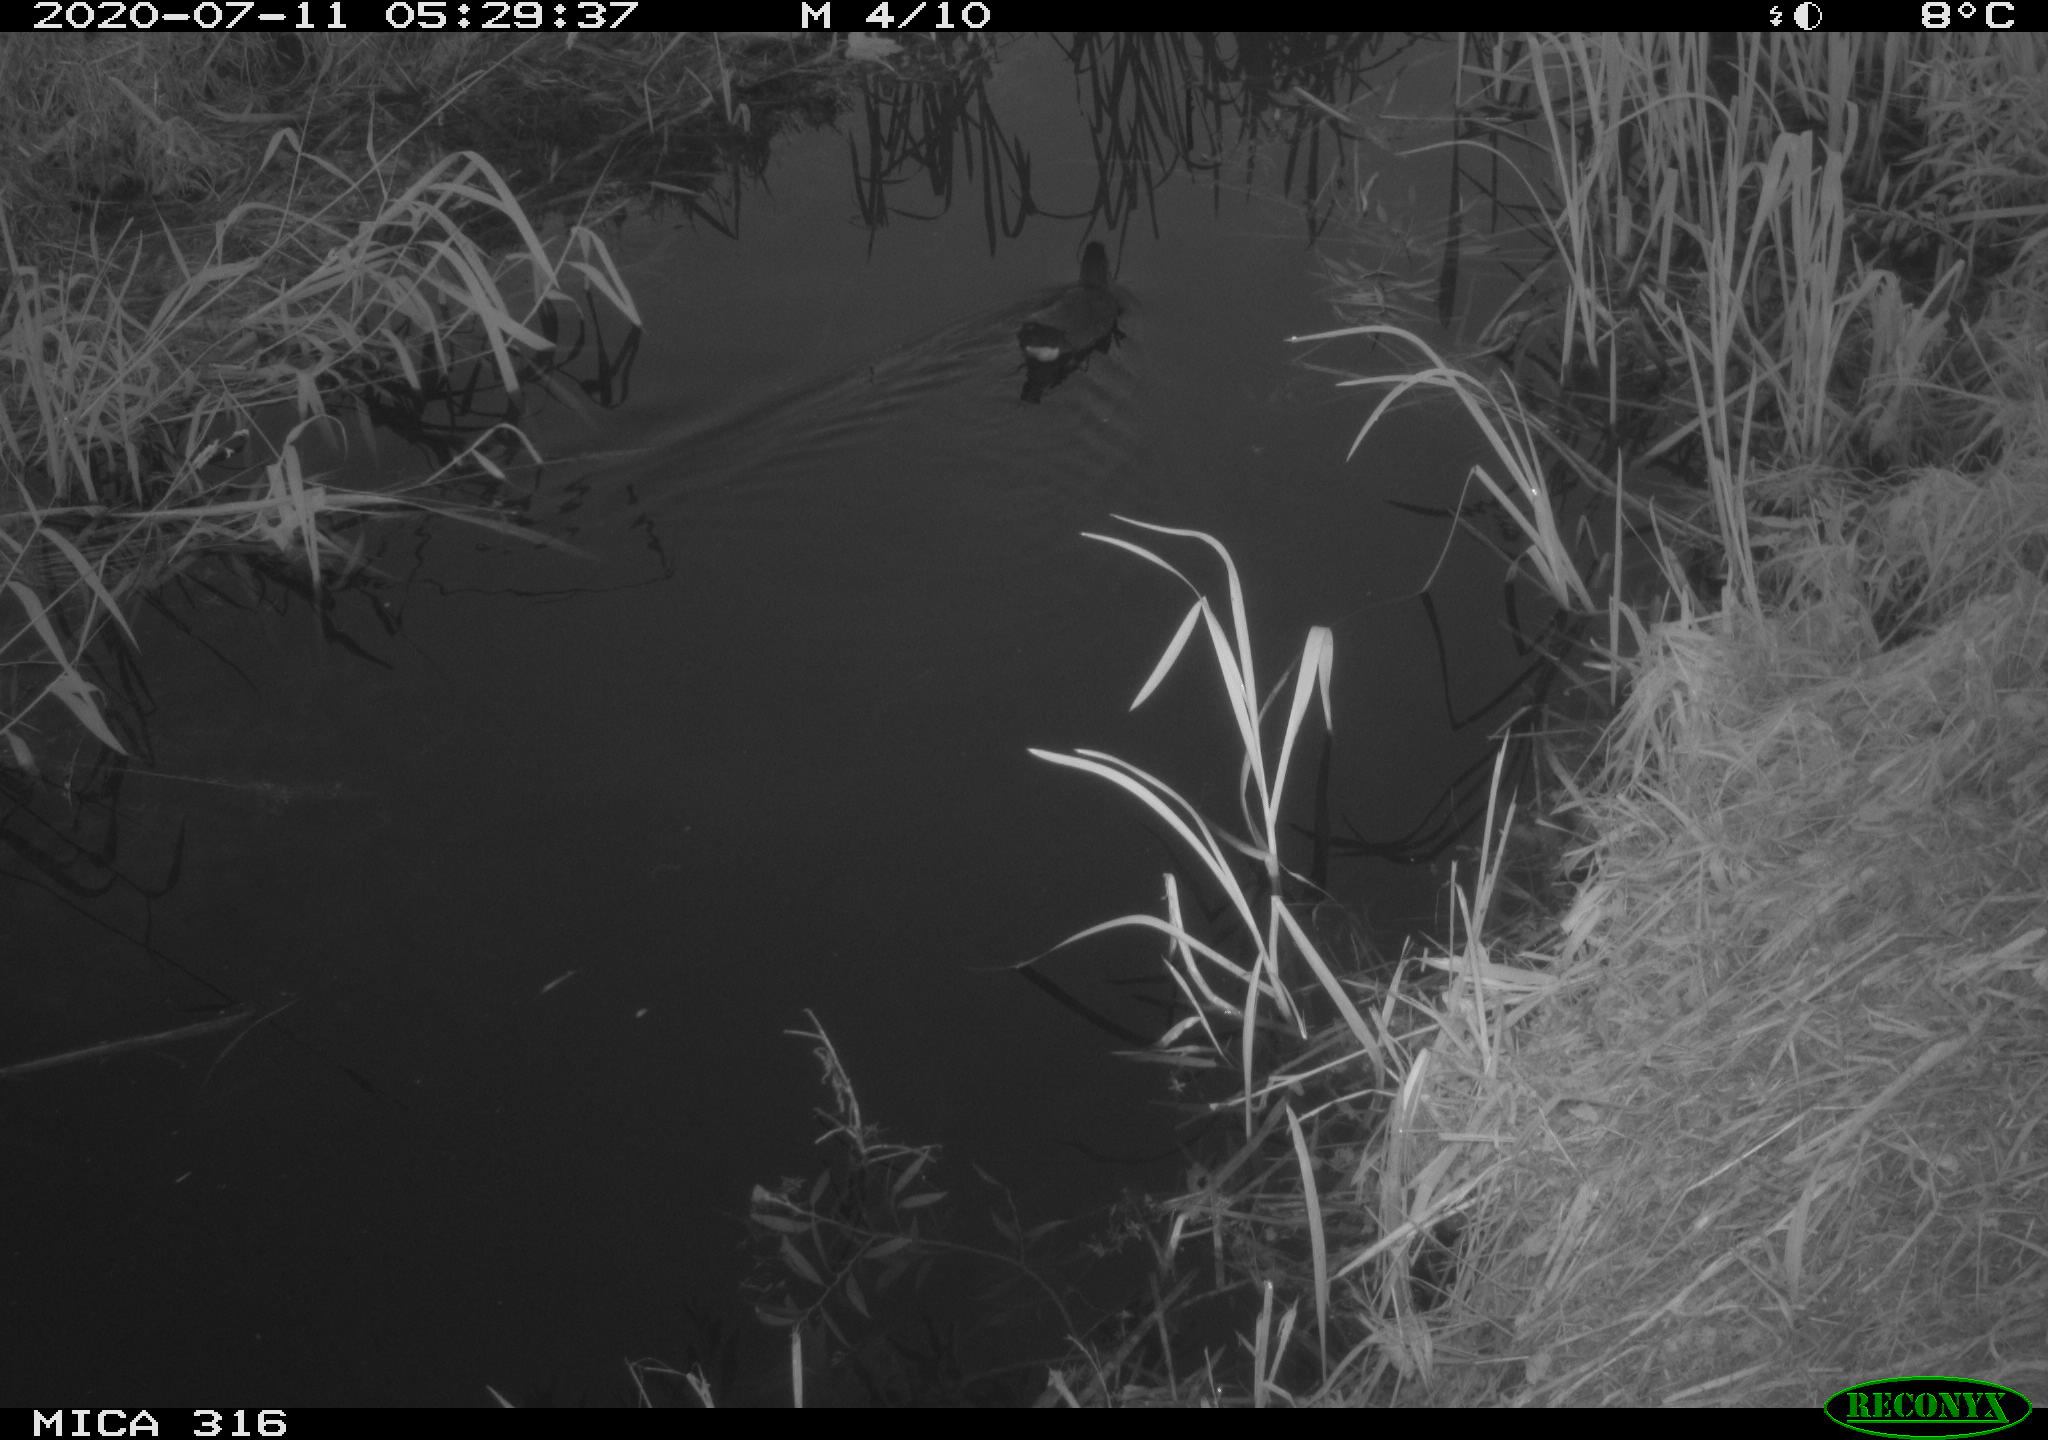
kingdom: Animalia
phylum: Chordata
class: Aves
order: Anseriformes
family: Anatidae
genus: Anas
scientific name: Anas platyrhynchos
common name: Mallard
